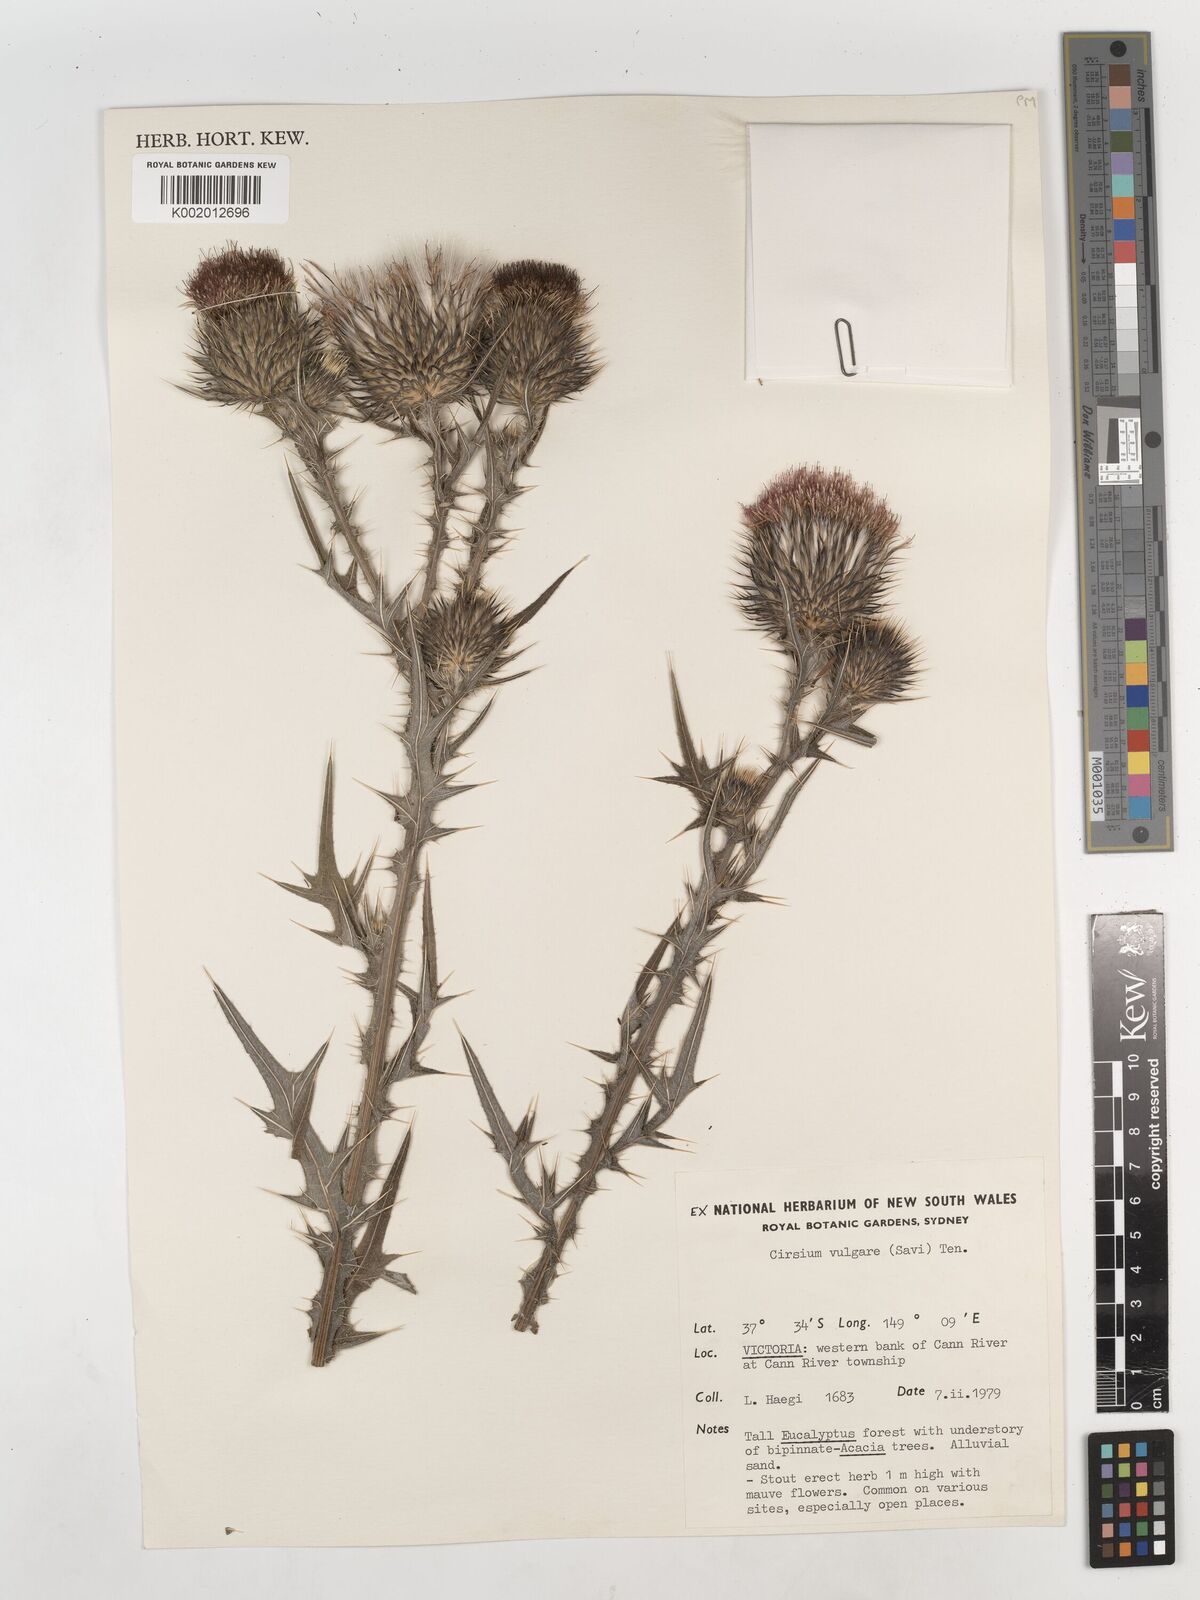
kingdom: Plantae
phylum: Tracheophyta
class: Magnoliopsida
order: Asterales
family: Asteraceae
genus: Cirsium
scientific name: Cirsium vulgare
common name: Bull thistle
